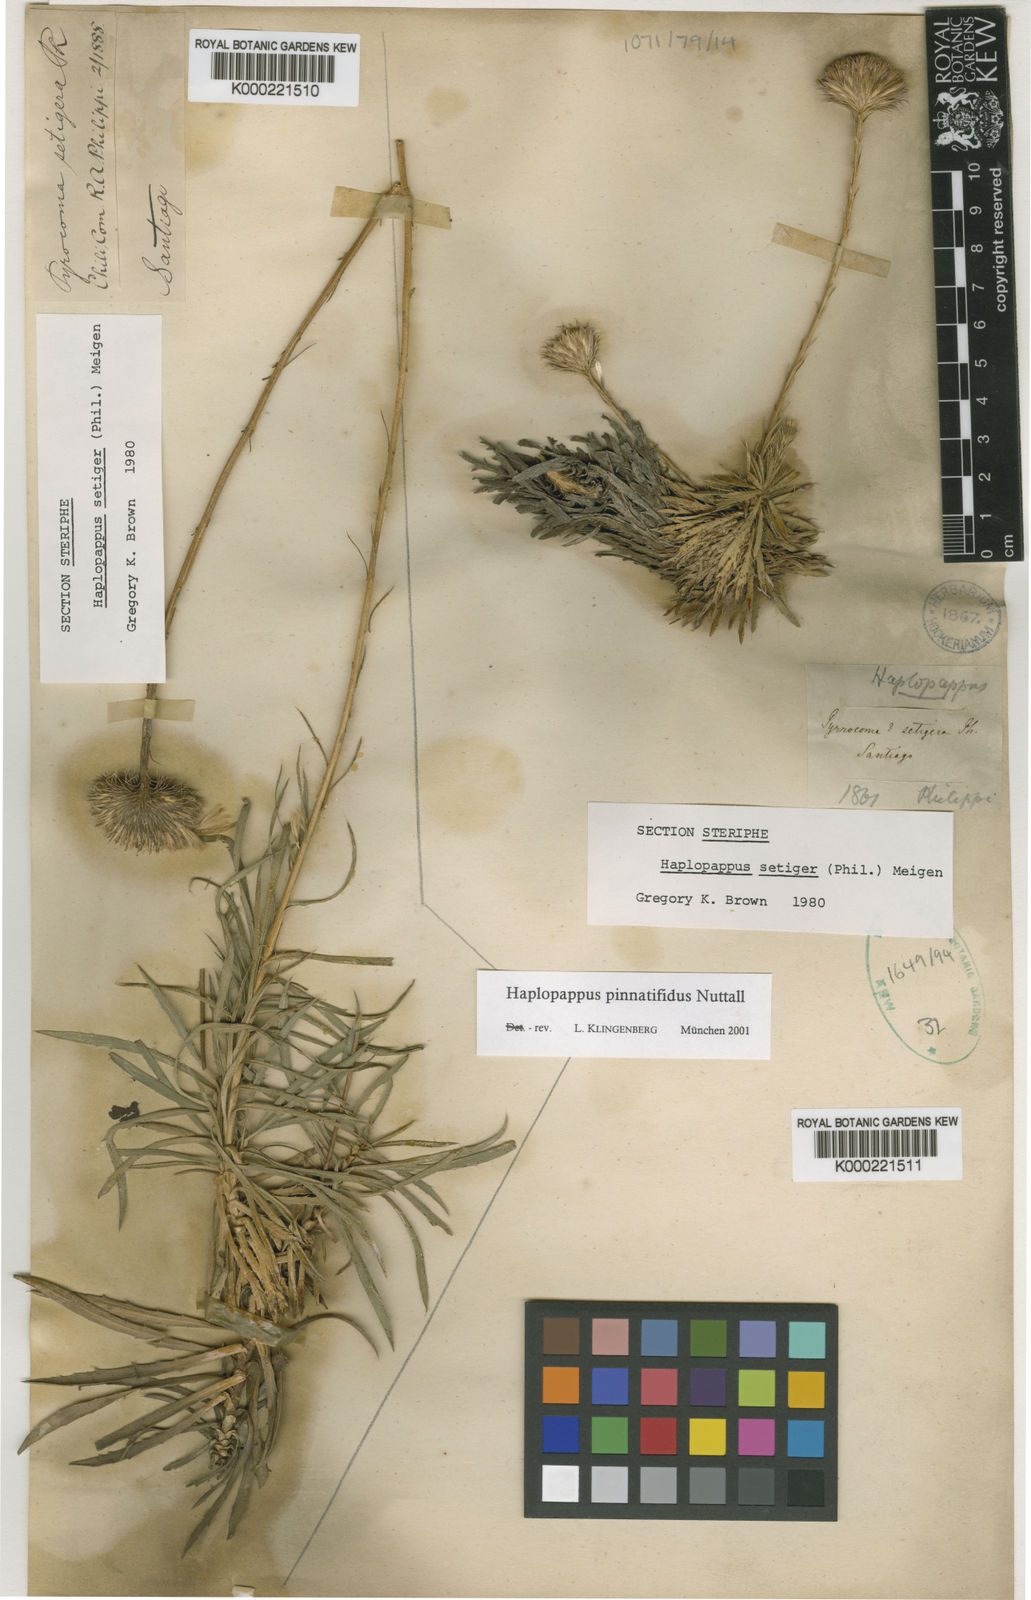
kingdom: Plantae
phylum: Tracheophyta
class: Magnoliopsida
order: Asterales
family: Asteraceae
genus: Haplopappus
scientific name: Haplopappus pinnatifidus
